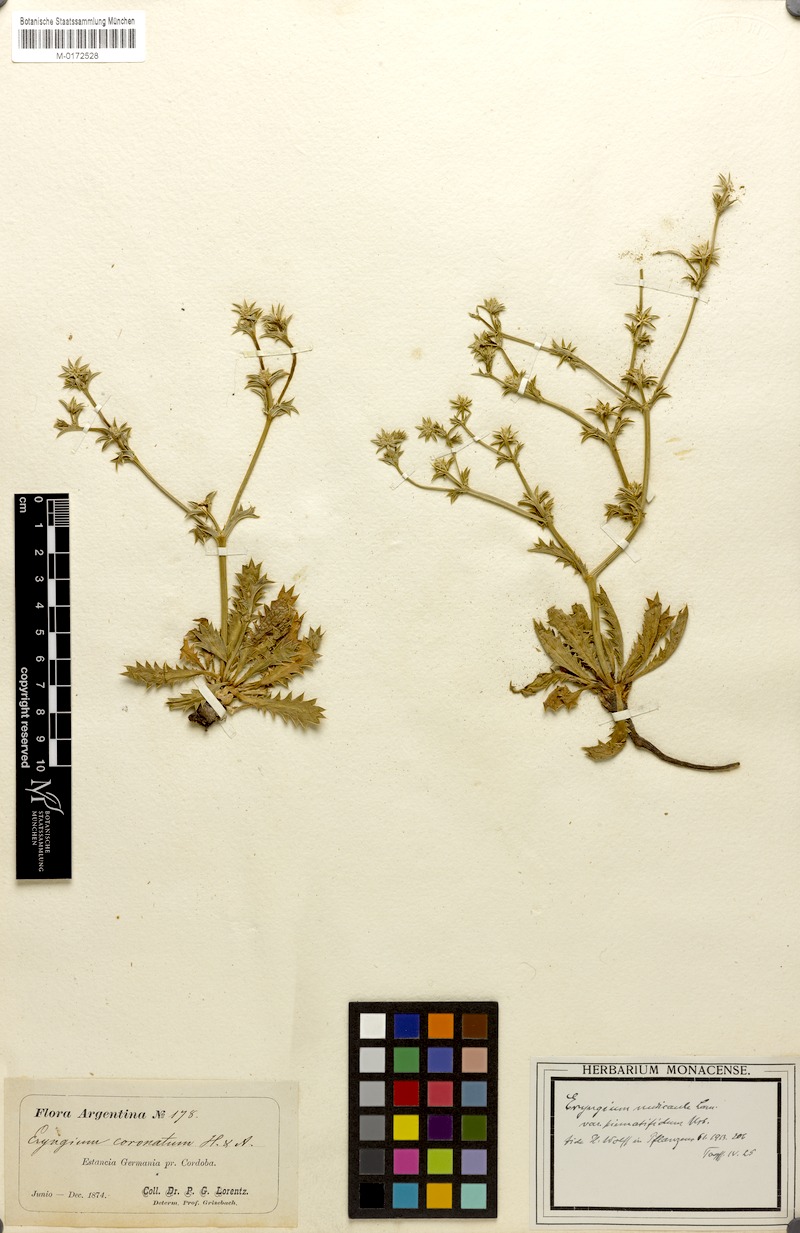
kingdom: Plantae
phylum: Tracheophyta
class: Magnoliopsida
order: Apiales
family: Apiaceae
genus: Eryngium
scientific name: Eryngium nudicaule
